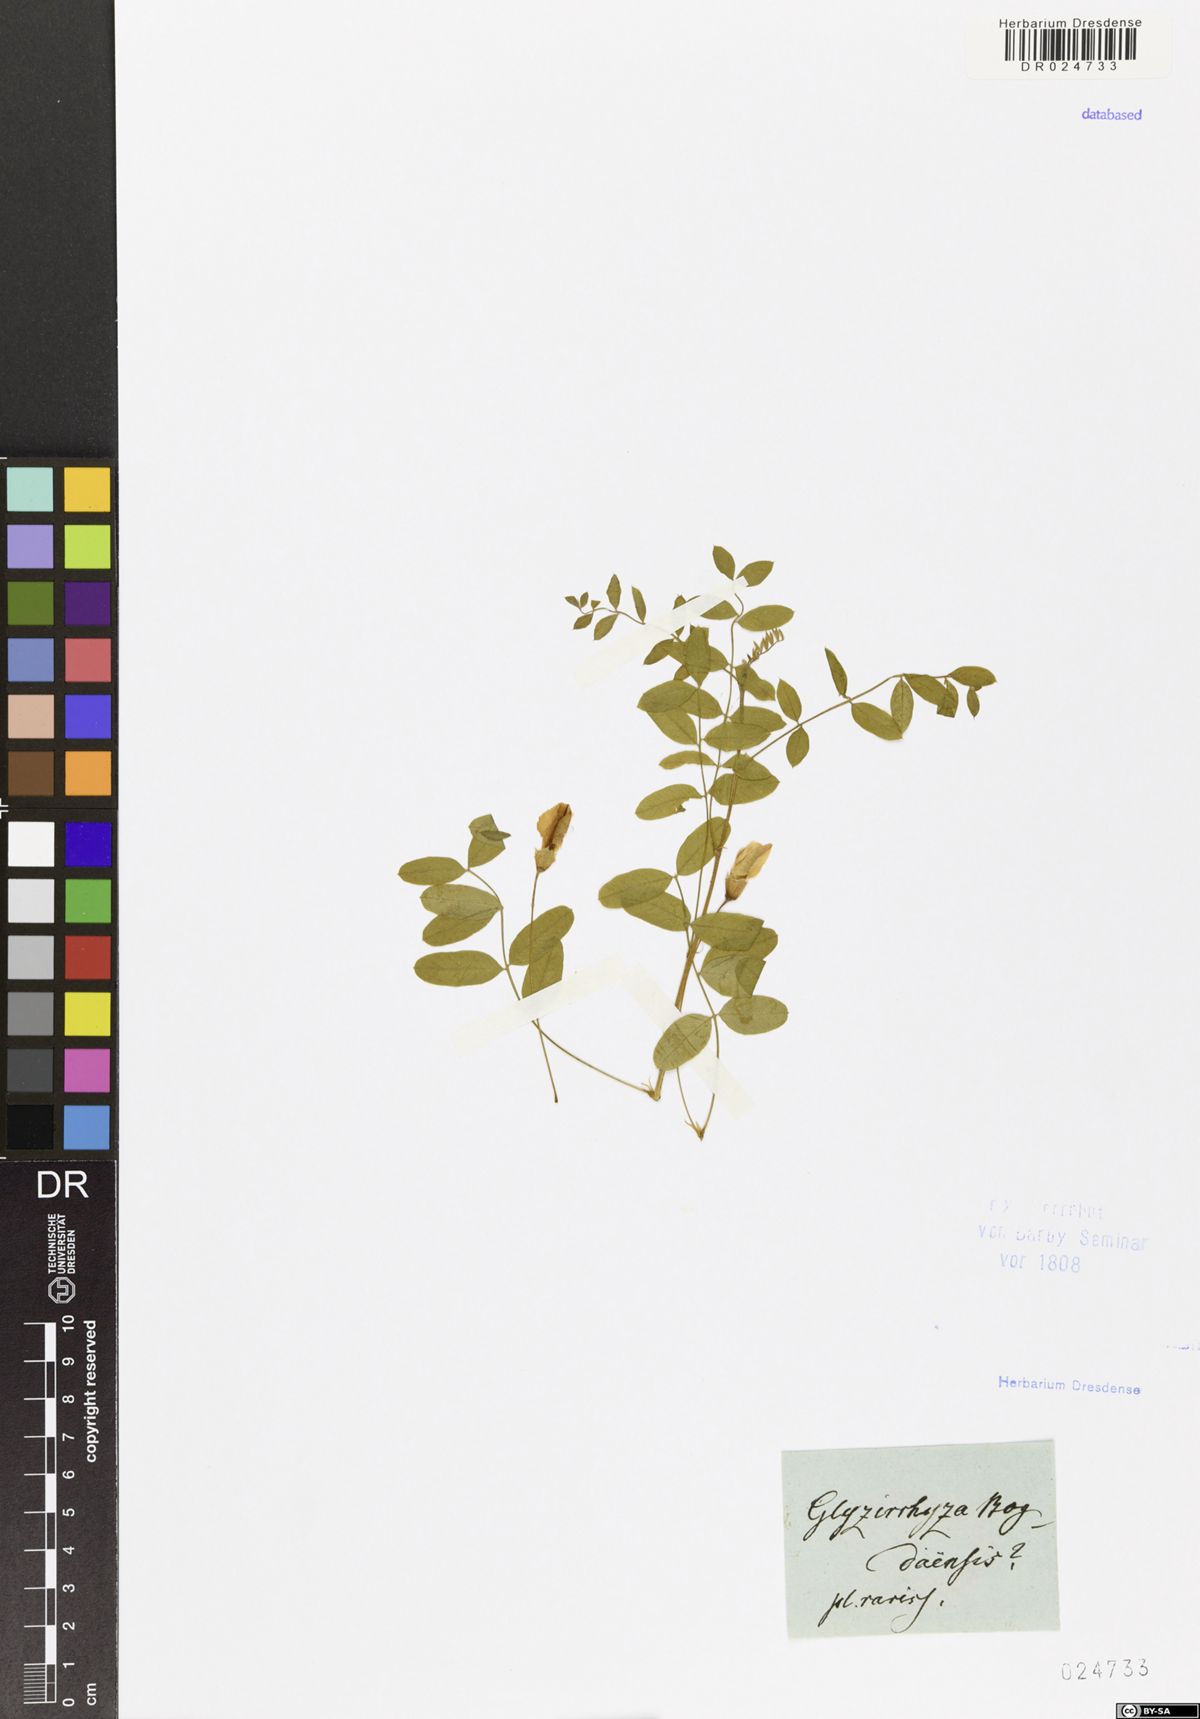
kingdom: Plantae
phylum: Tracheophyta
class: Magnoliopsida
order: Fabales
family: Fabaceae
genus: Eversmannia
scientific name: Eversmannia subspinosa
